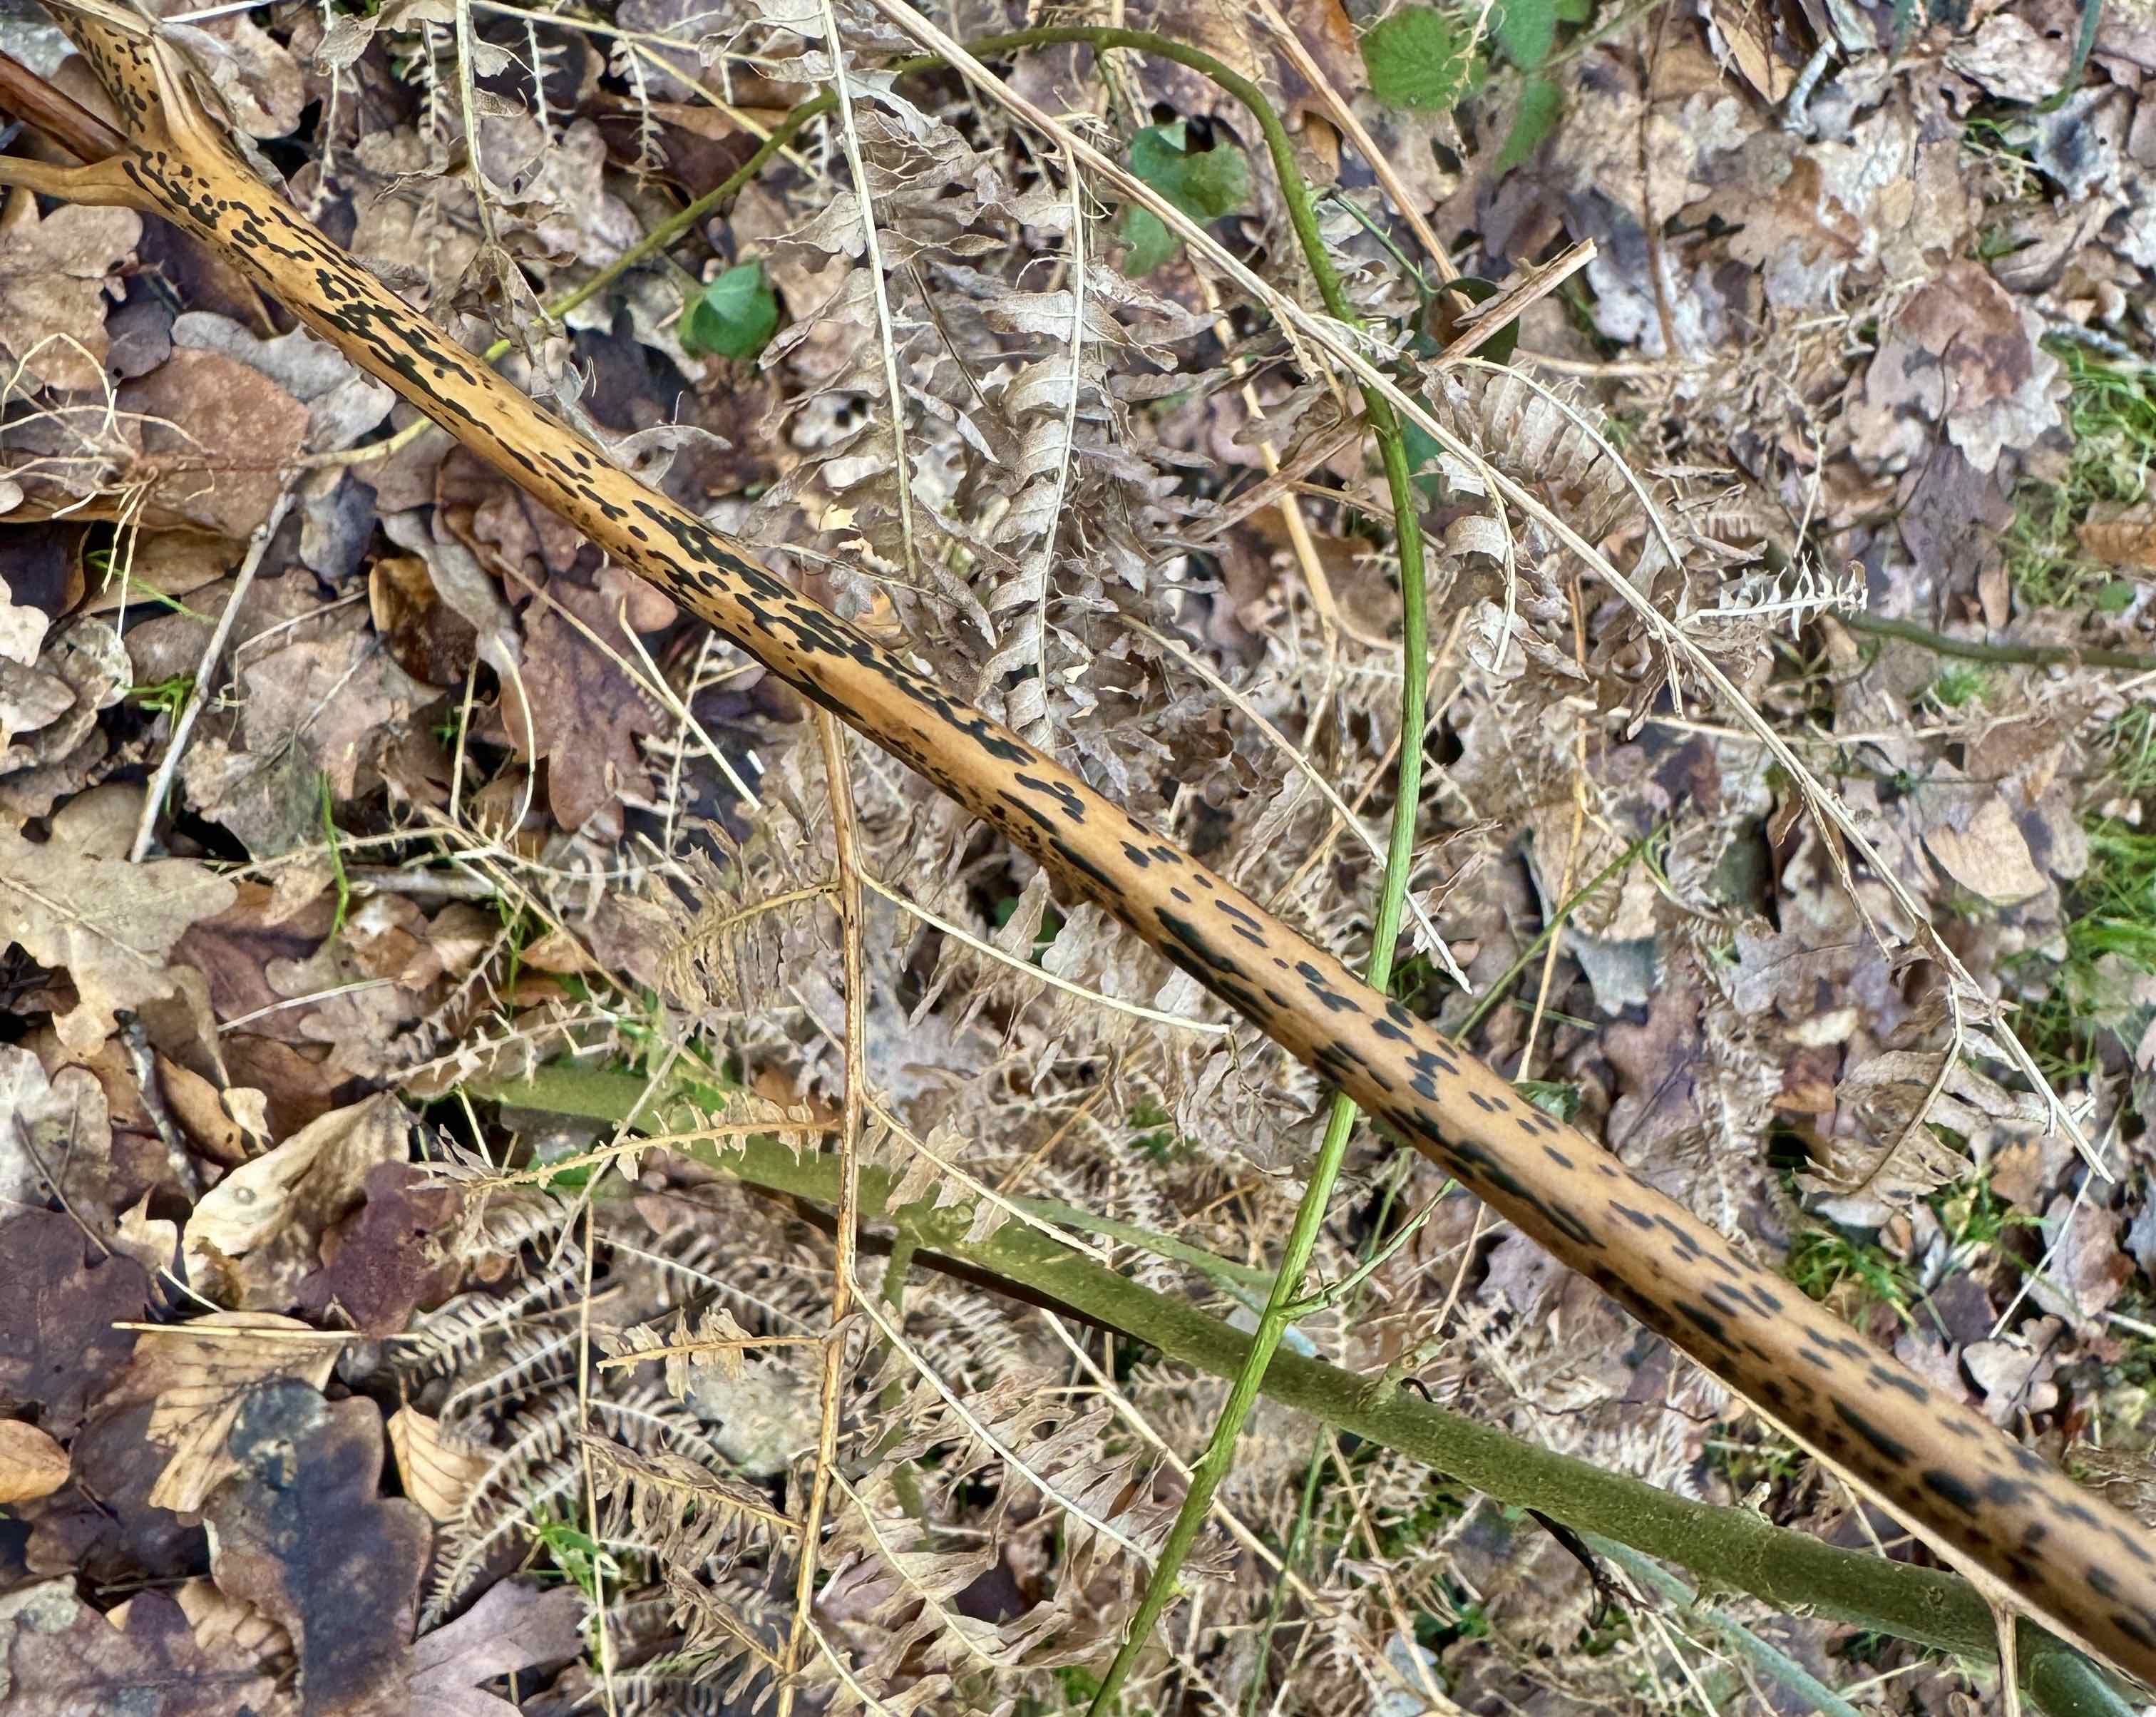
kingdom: Fungi
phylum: Ascomycota
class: Dothideomycetes
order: Pleosporales
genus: Rhopographus
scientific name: Rhopographus filicinus
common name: Bracken map
